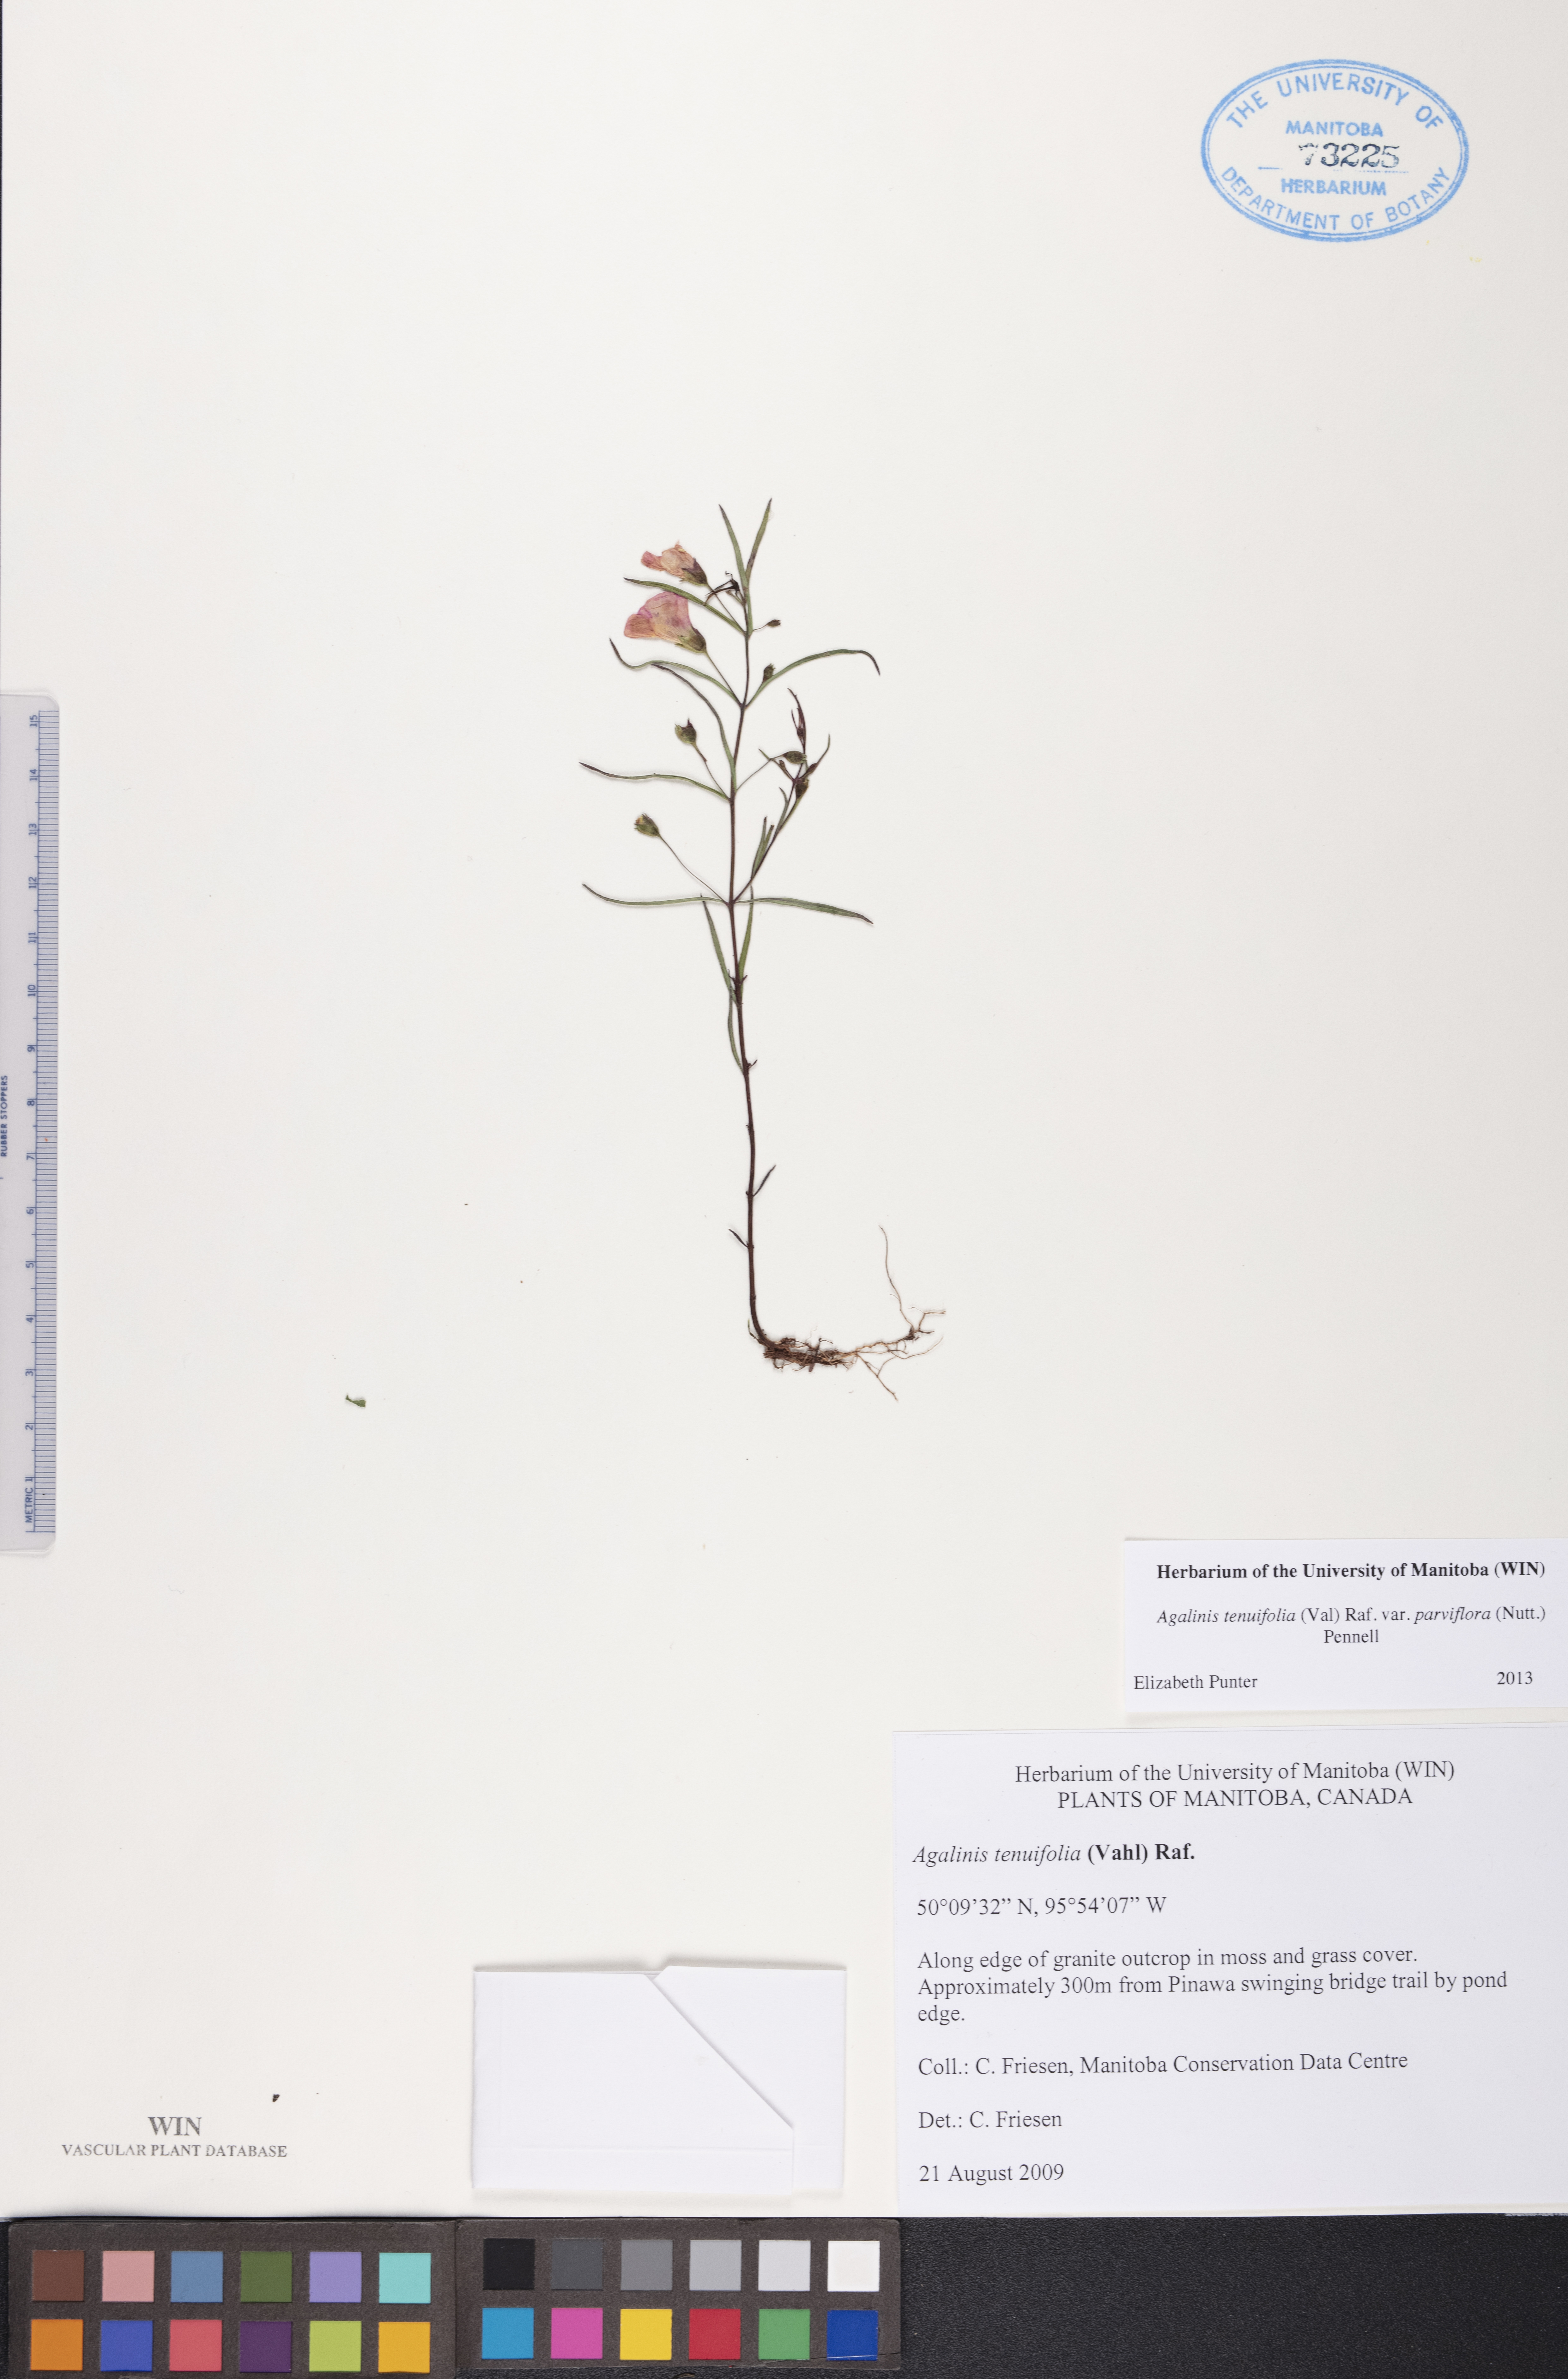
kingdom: Plantae
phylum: Tracheophyta
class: Magnoliopsida
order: Lamiales
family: Orobanchaceae
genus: Agalinis
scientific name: Agalinis tenuifolia
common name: Slender agalinis
